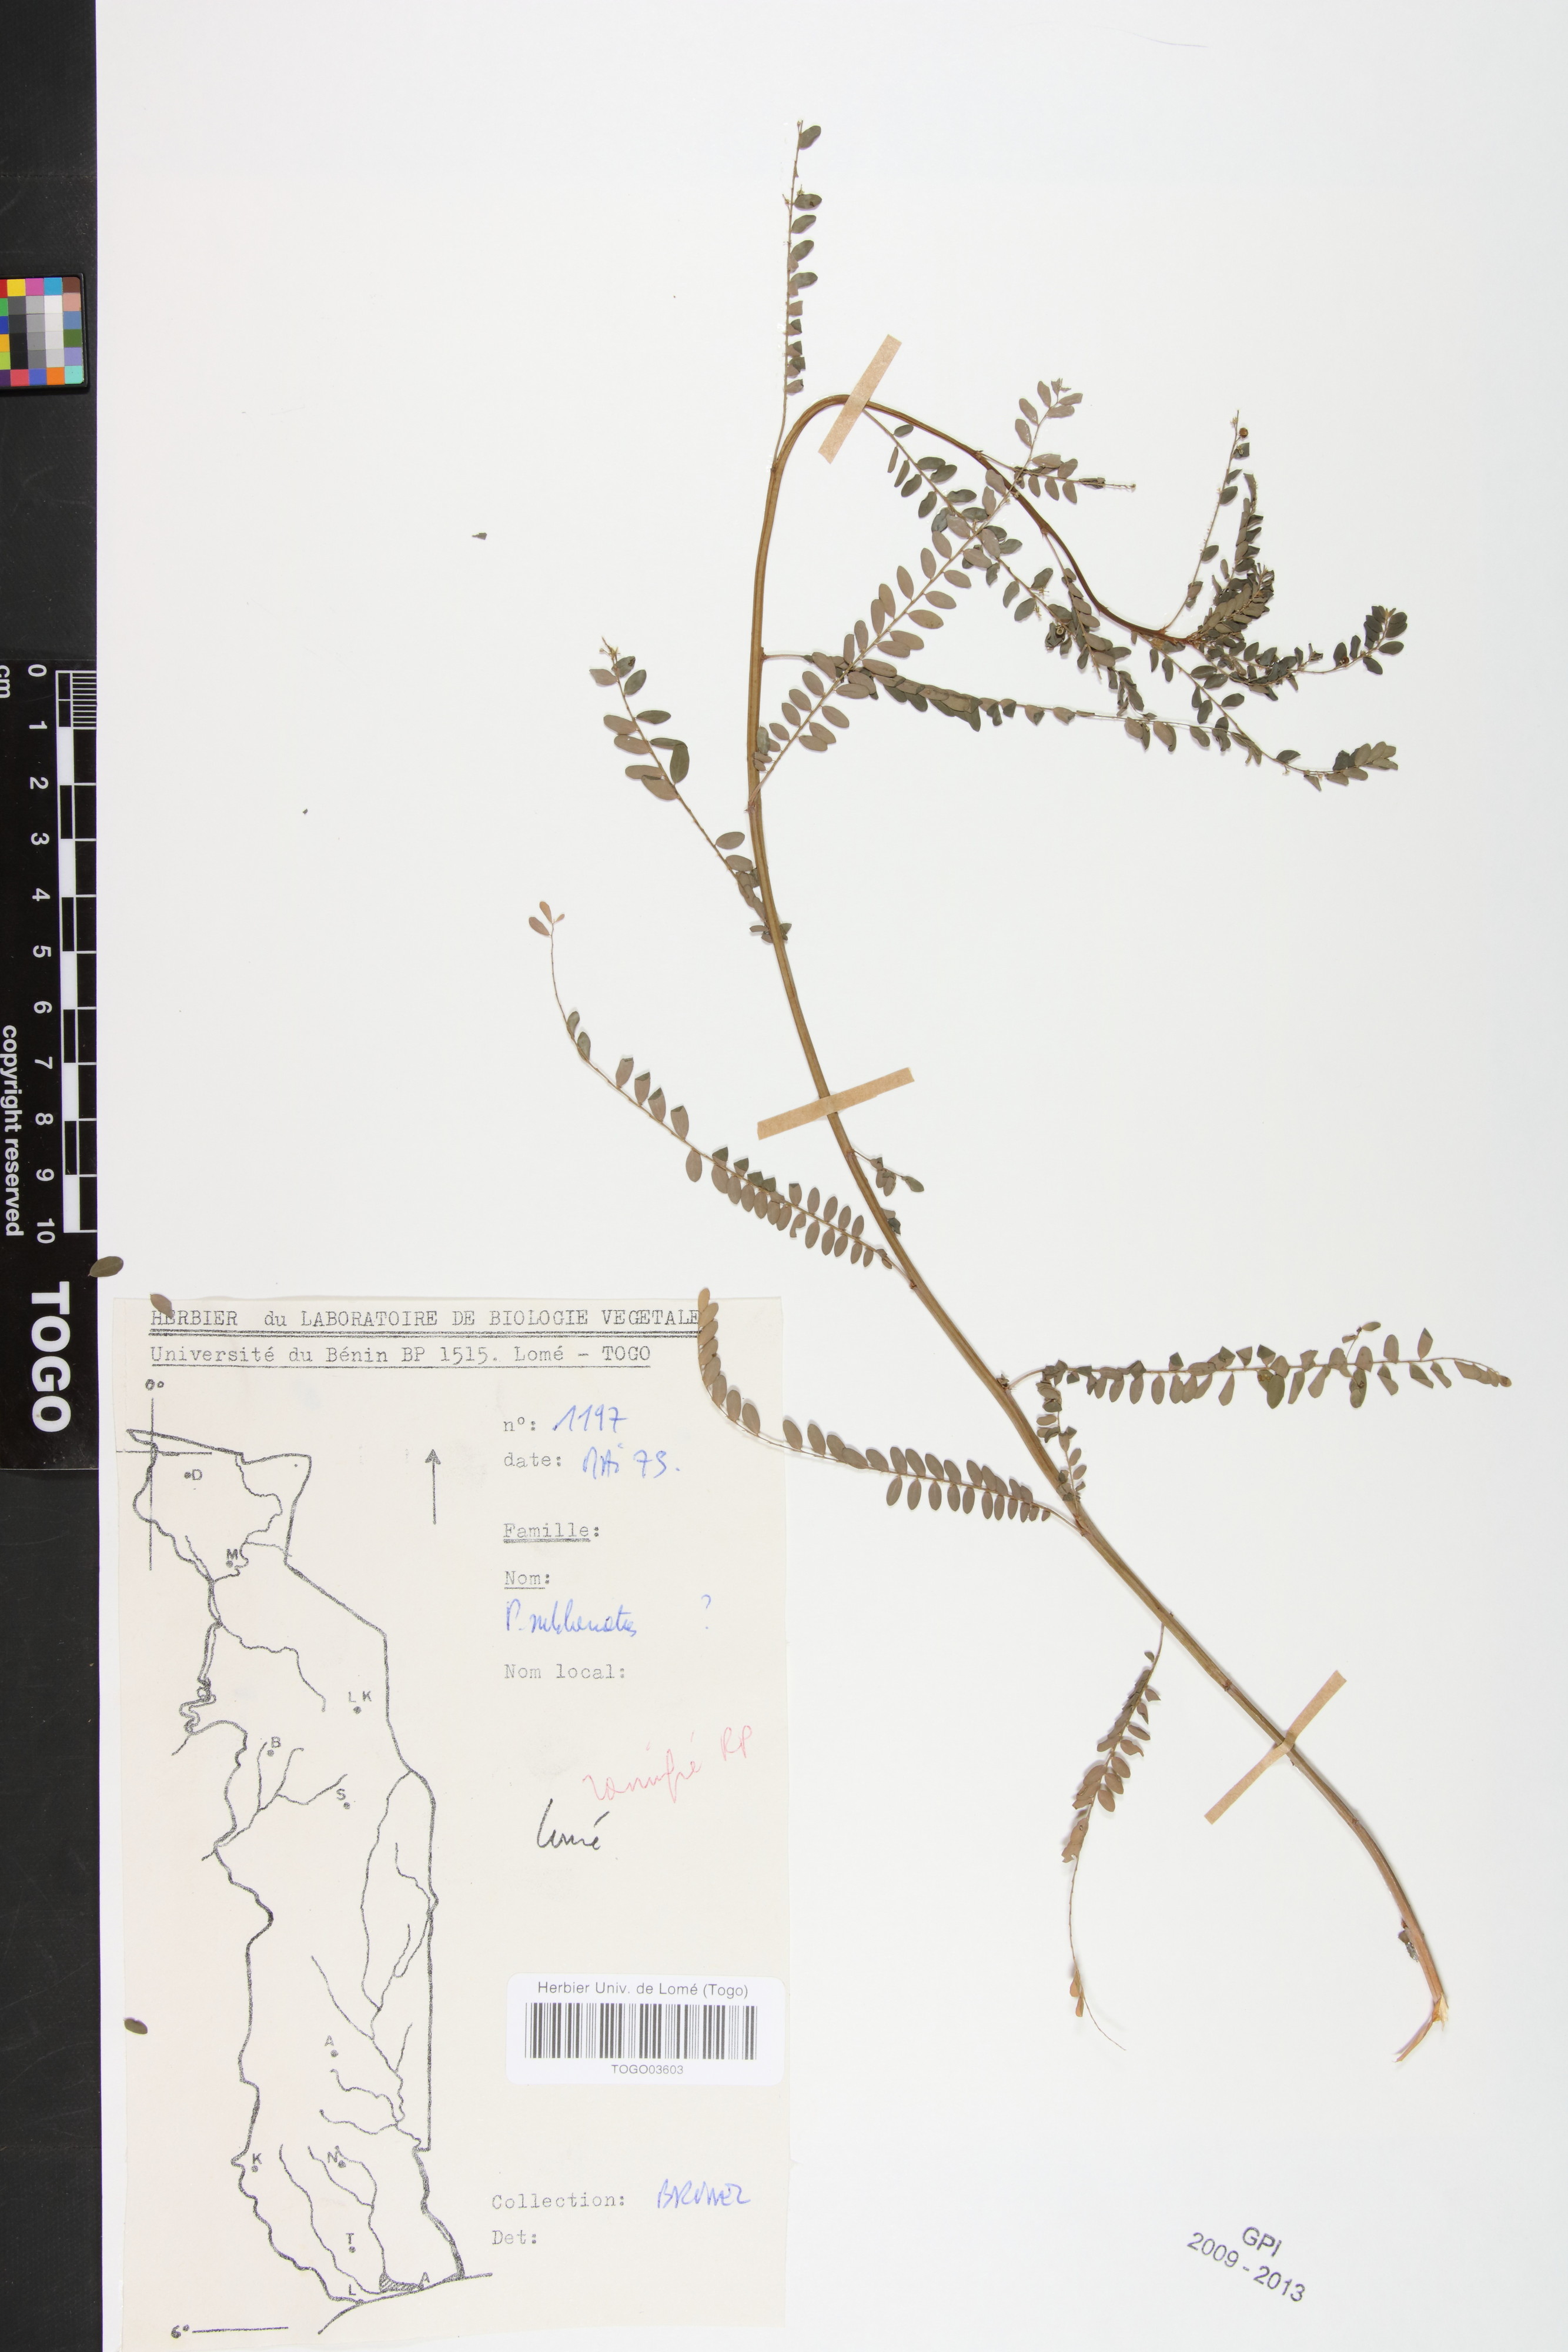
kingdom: Plantae
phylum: Tracheophyta
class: Magnoliopsida
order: Malpighiales
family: Phyllanthaceae
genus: Phyllanthus
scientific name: Phyllanthus sublanatus
